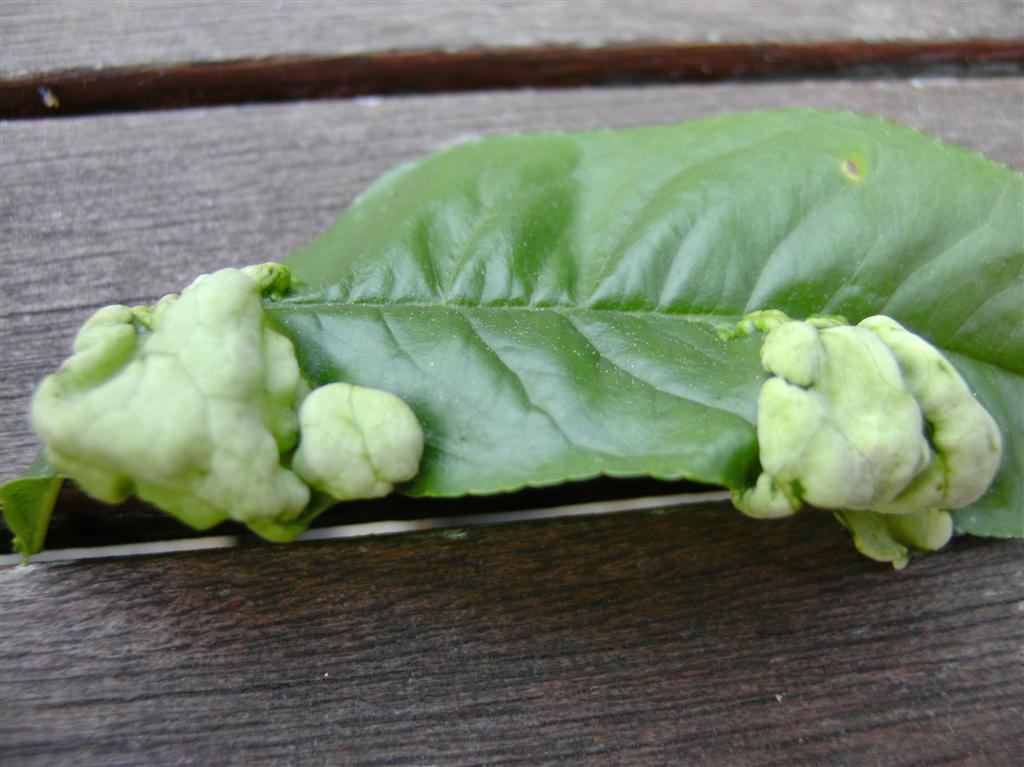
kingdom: Fungi
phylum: Ascomycota
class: Taphrinomycetes
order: Taphrinales
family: Taphrinaceae
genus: Taphrina
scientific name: Taphrina deformans
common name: Peach leaf curl
